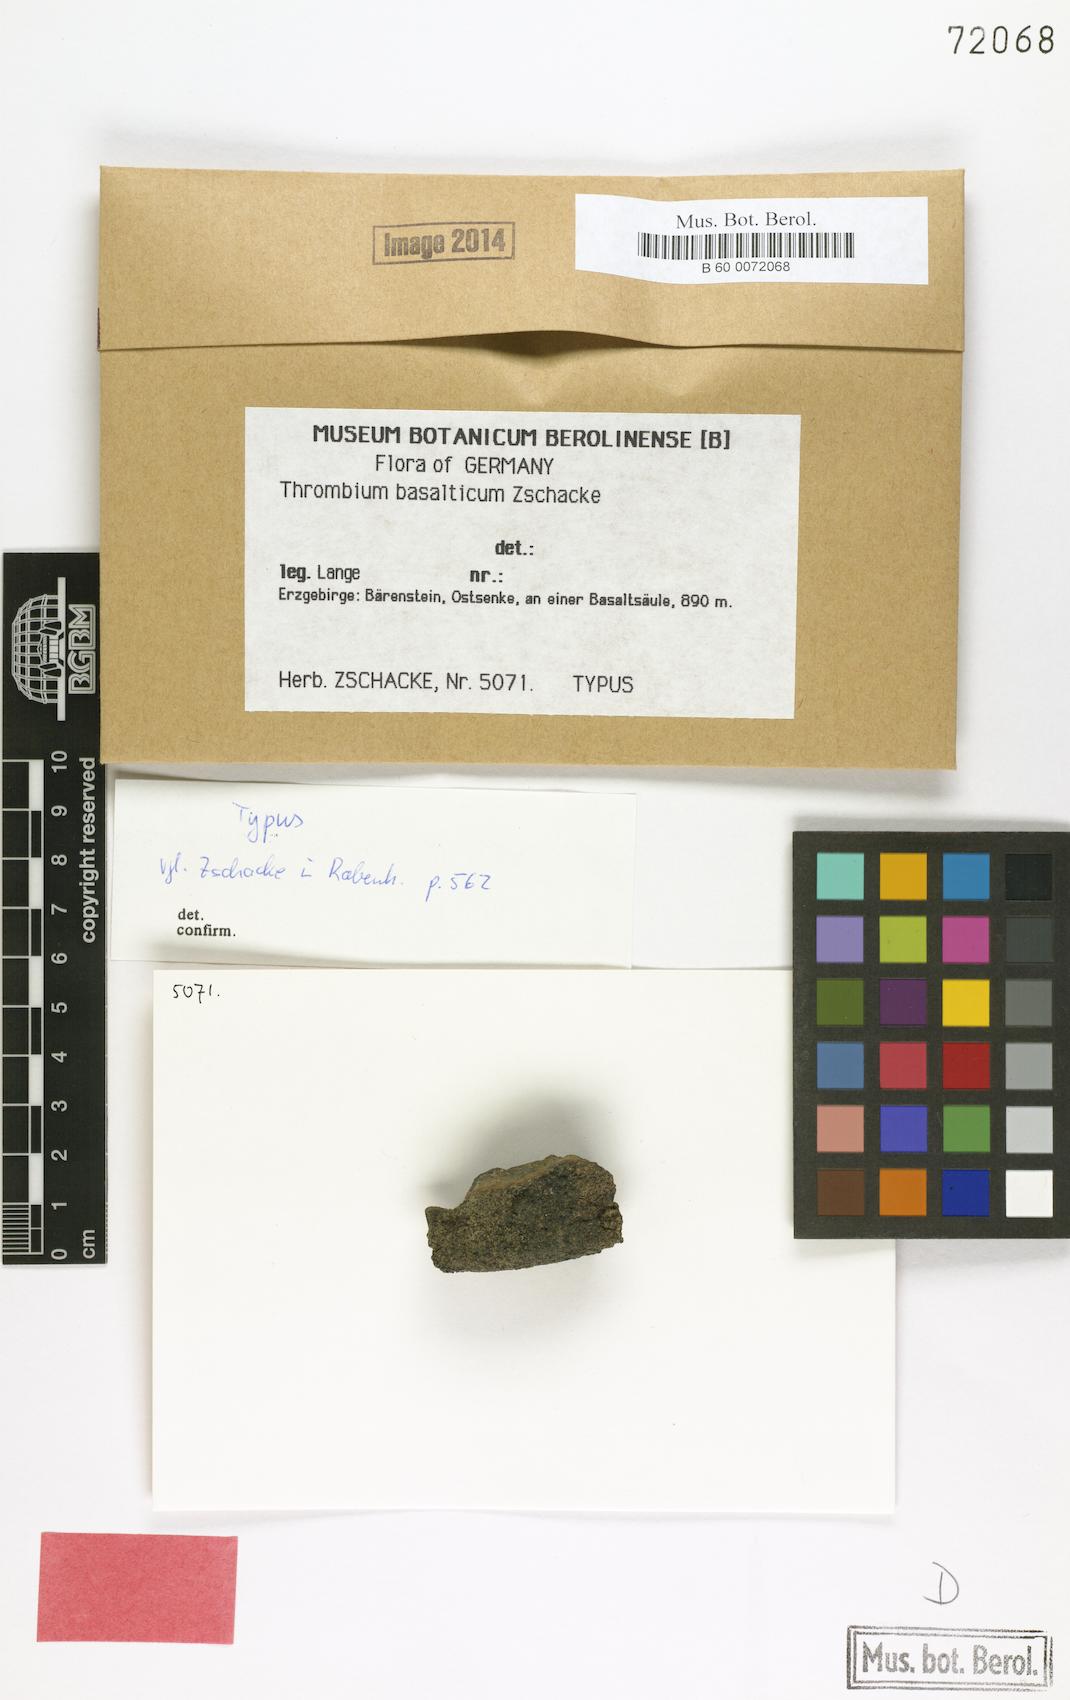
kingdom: Fungi
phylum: Ascomycota
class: Arthoniomycetes
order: Arthoniales
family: Arthoniaceae
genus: Thrombium
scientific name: Thrombium basalticum
